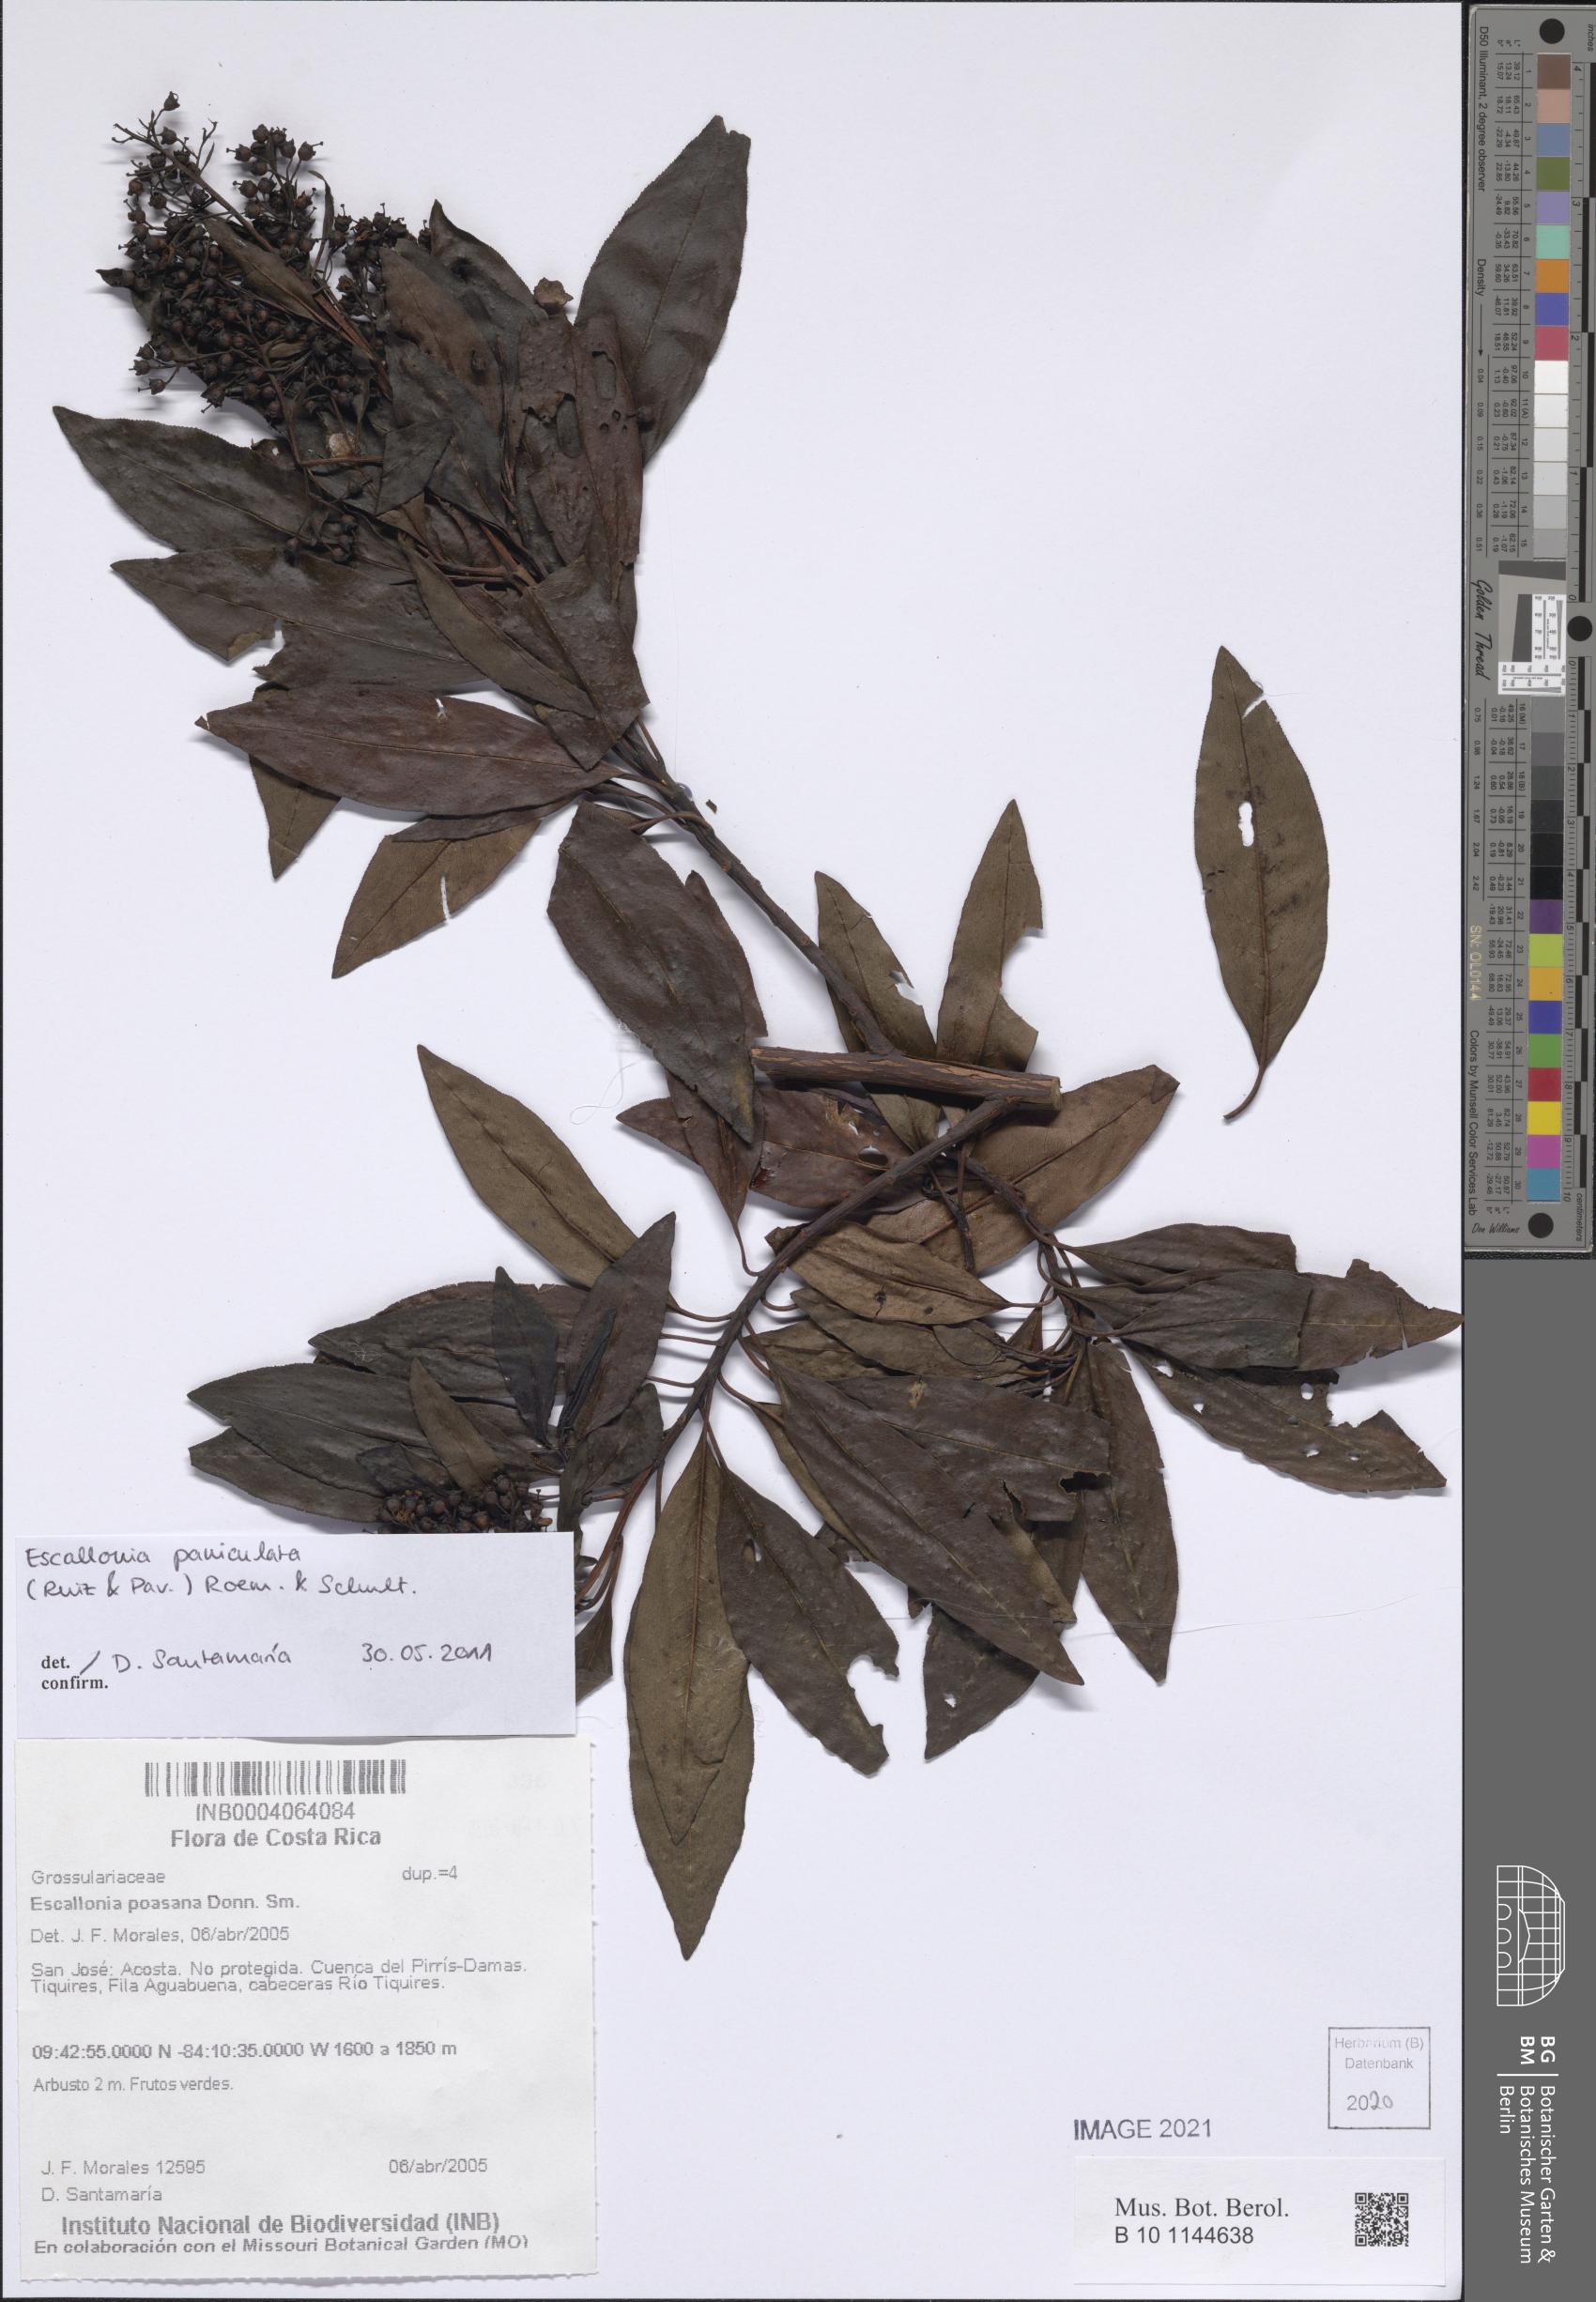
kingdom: Plantae
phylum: Tracheophyta
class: Magnoliopsida
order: Escalloniales
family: Escalloniaceae
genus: Escallonia
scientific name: Escallonia paniculata
